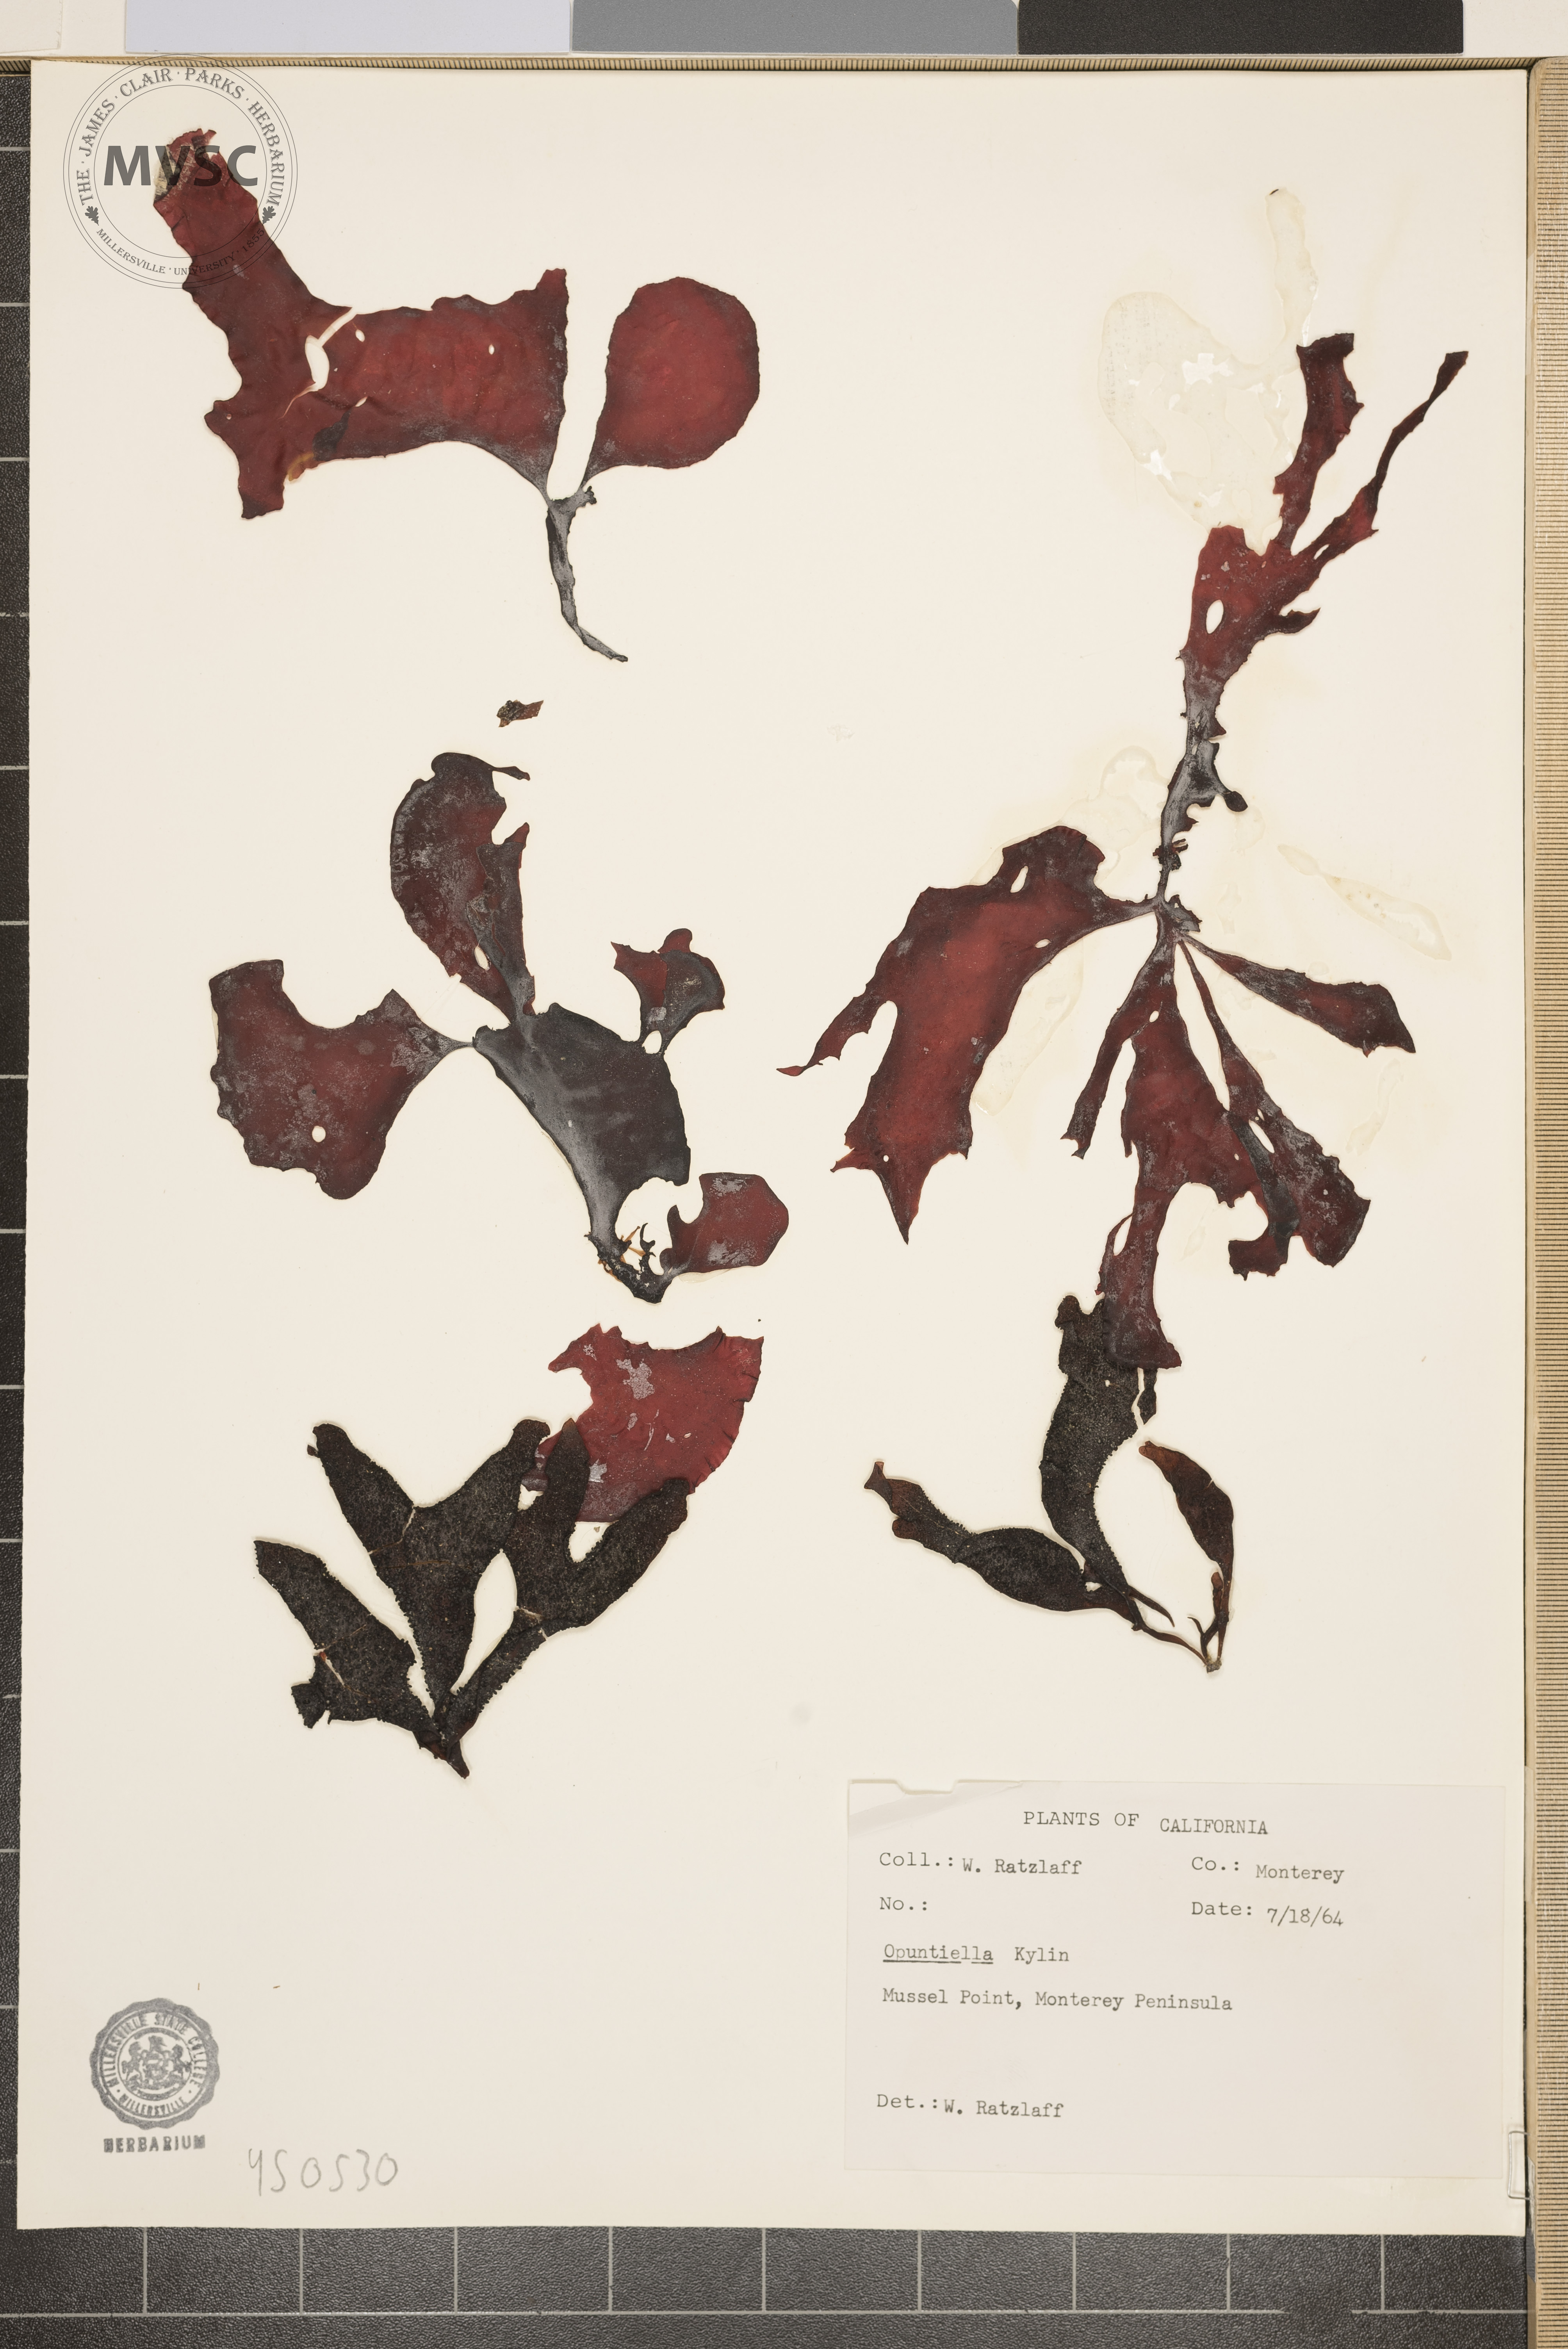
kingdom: Plantae
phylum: Rhodophyta
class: Florideophyceae
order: Gigartinales
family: Furcellariaceae
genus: Opuntiella
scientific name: Opuntiella
